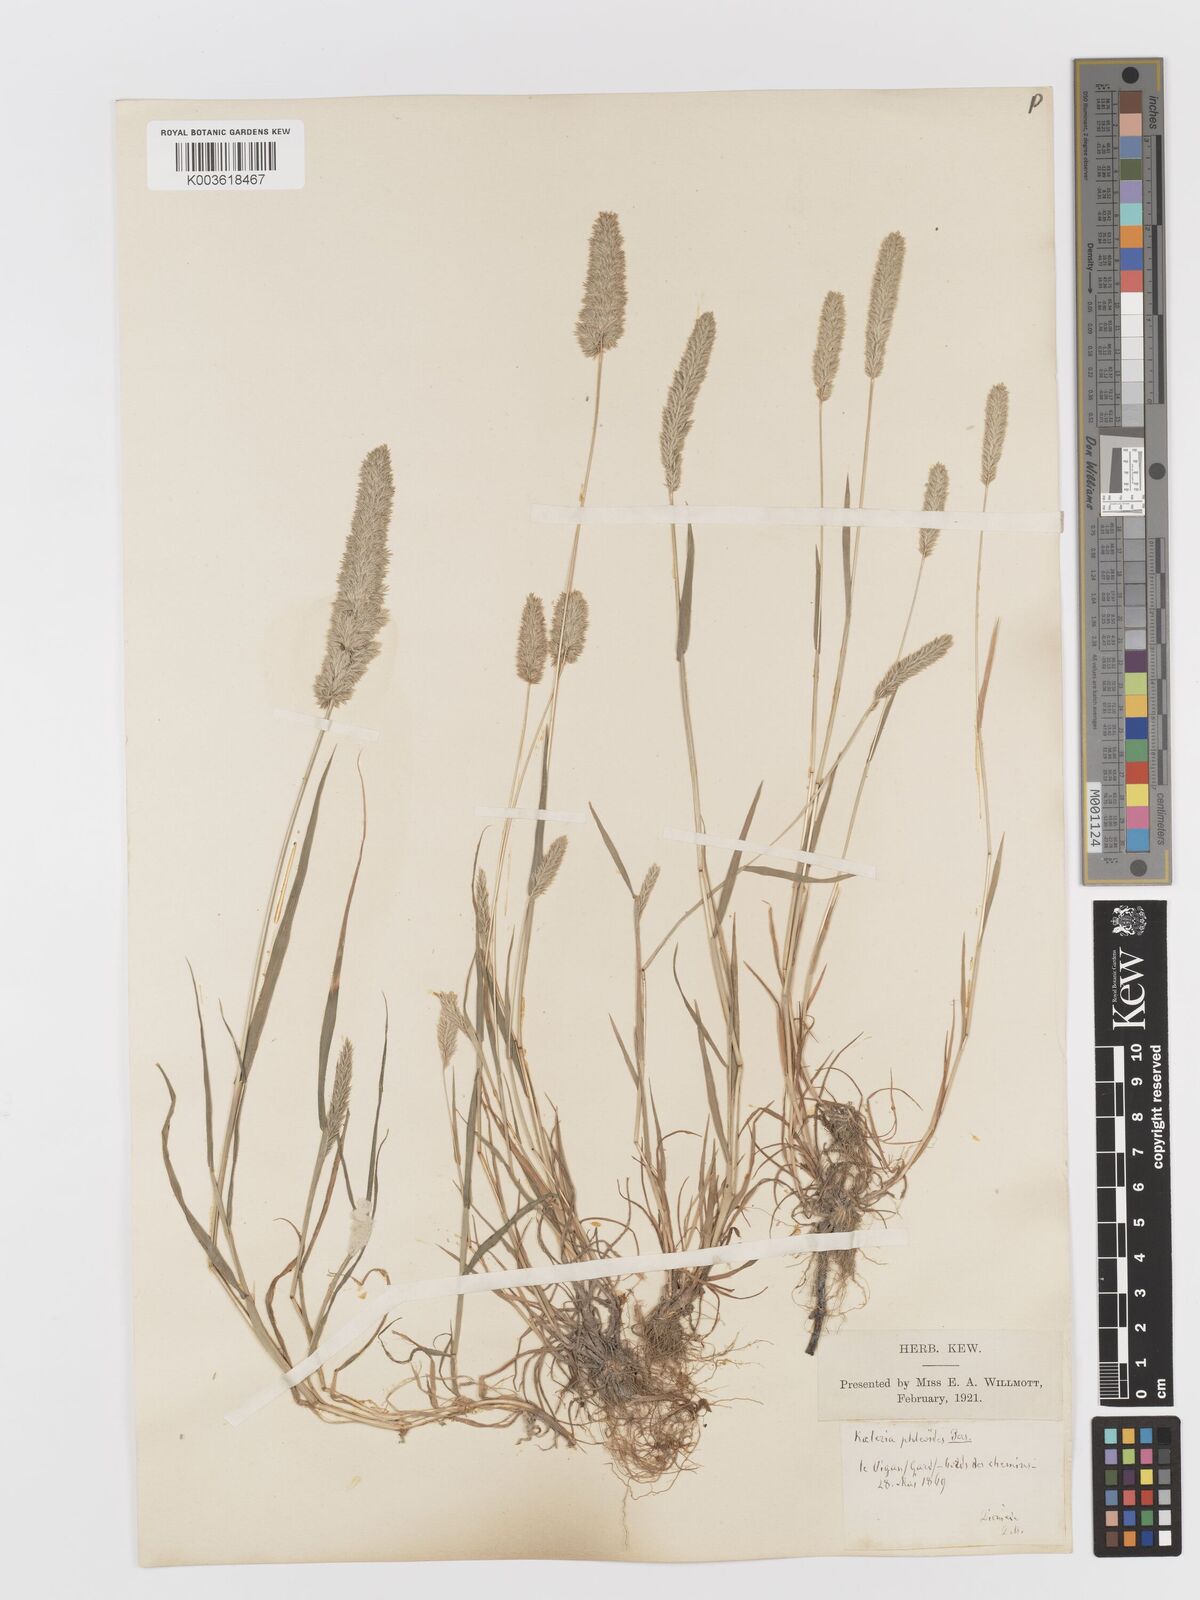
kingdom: Plantae
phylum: Tracheophyta
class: Liliopsida
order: Poales
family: Poaceae
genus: Rostraria
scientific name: Rostraria cristata
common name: Mediterranean hair-grass
